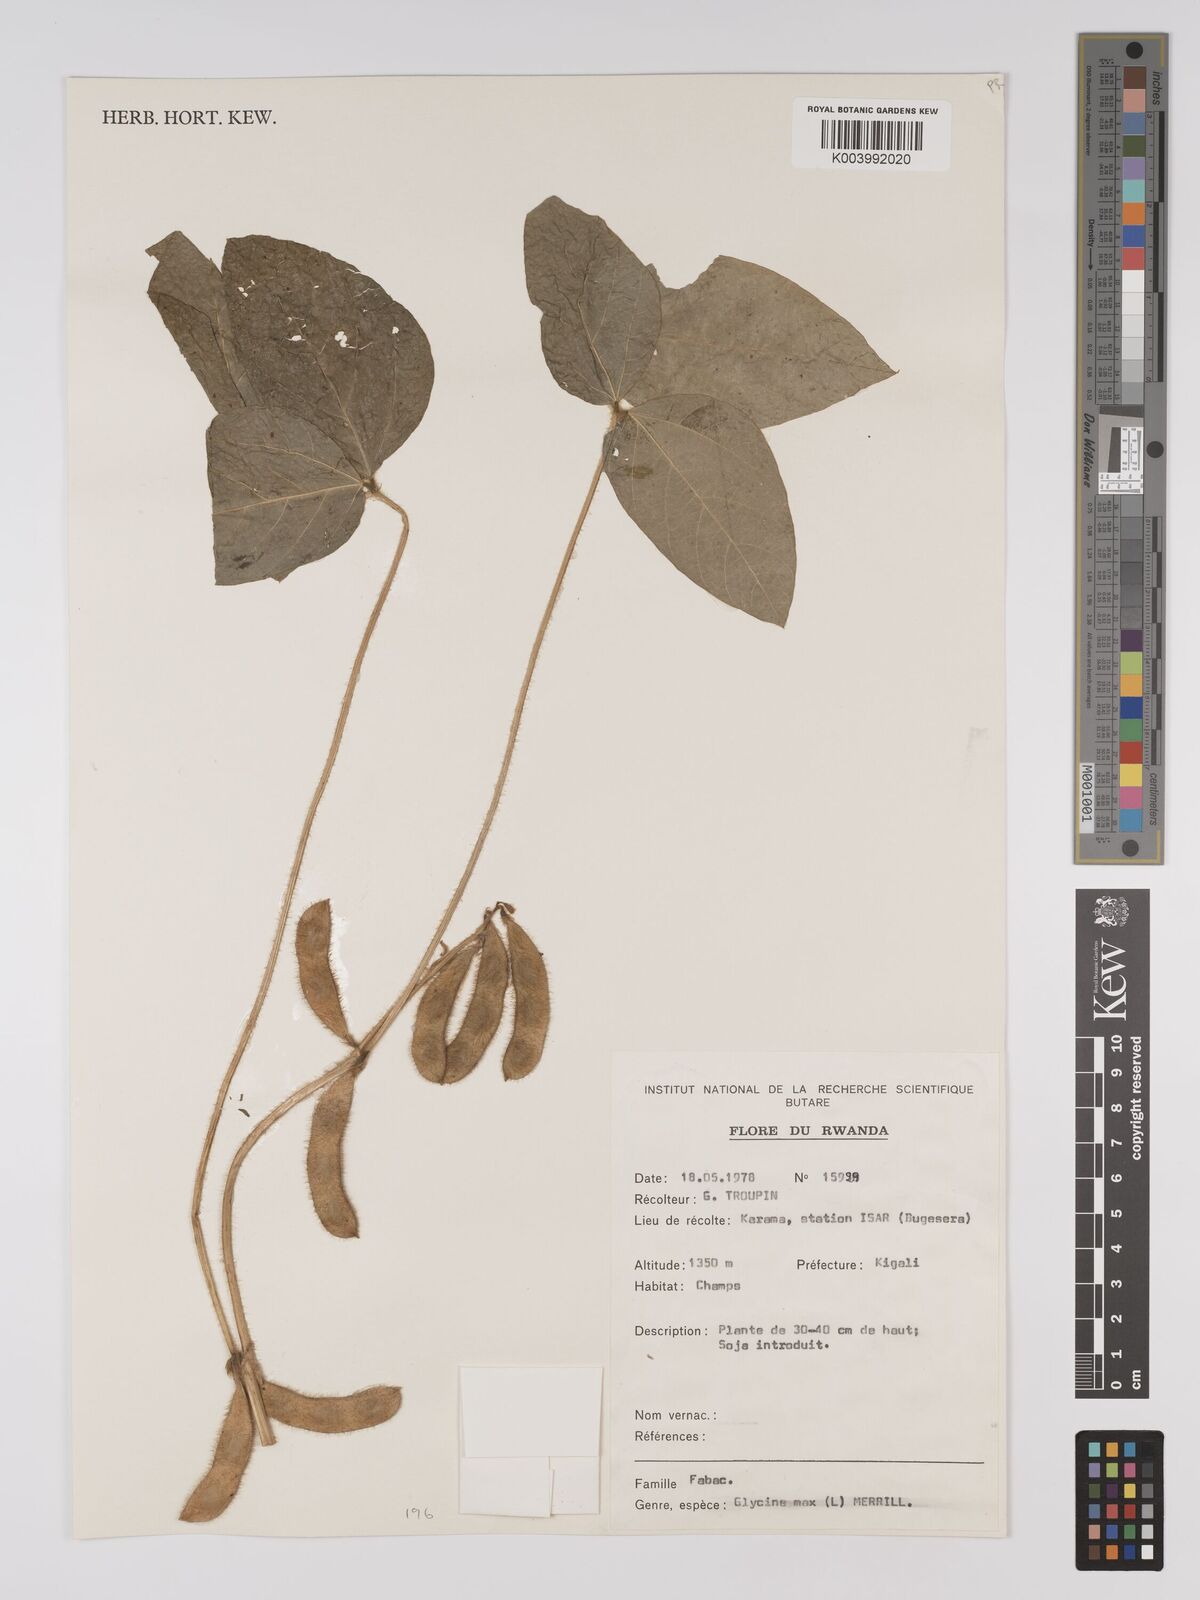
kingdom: Plantae
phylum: Tracheophyta
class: Magnoliopsida
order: Fabales
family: Fabaceae
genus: Glycine
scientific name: Glycine max
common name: Soya-bean
